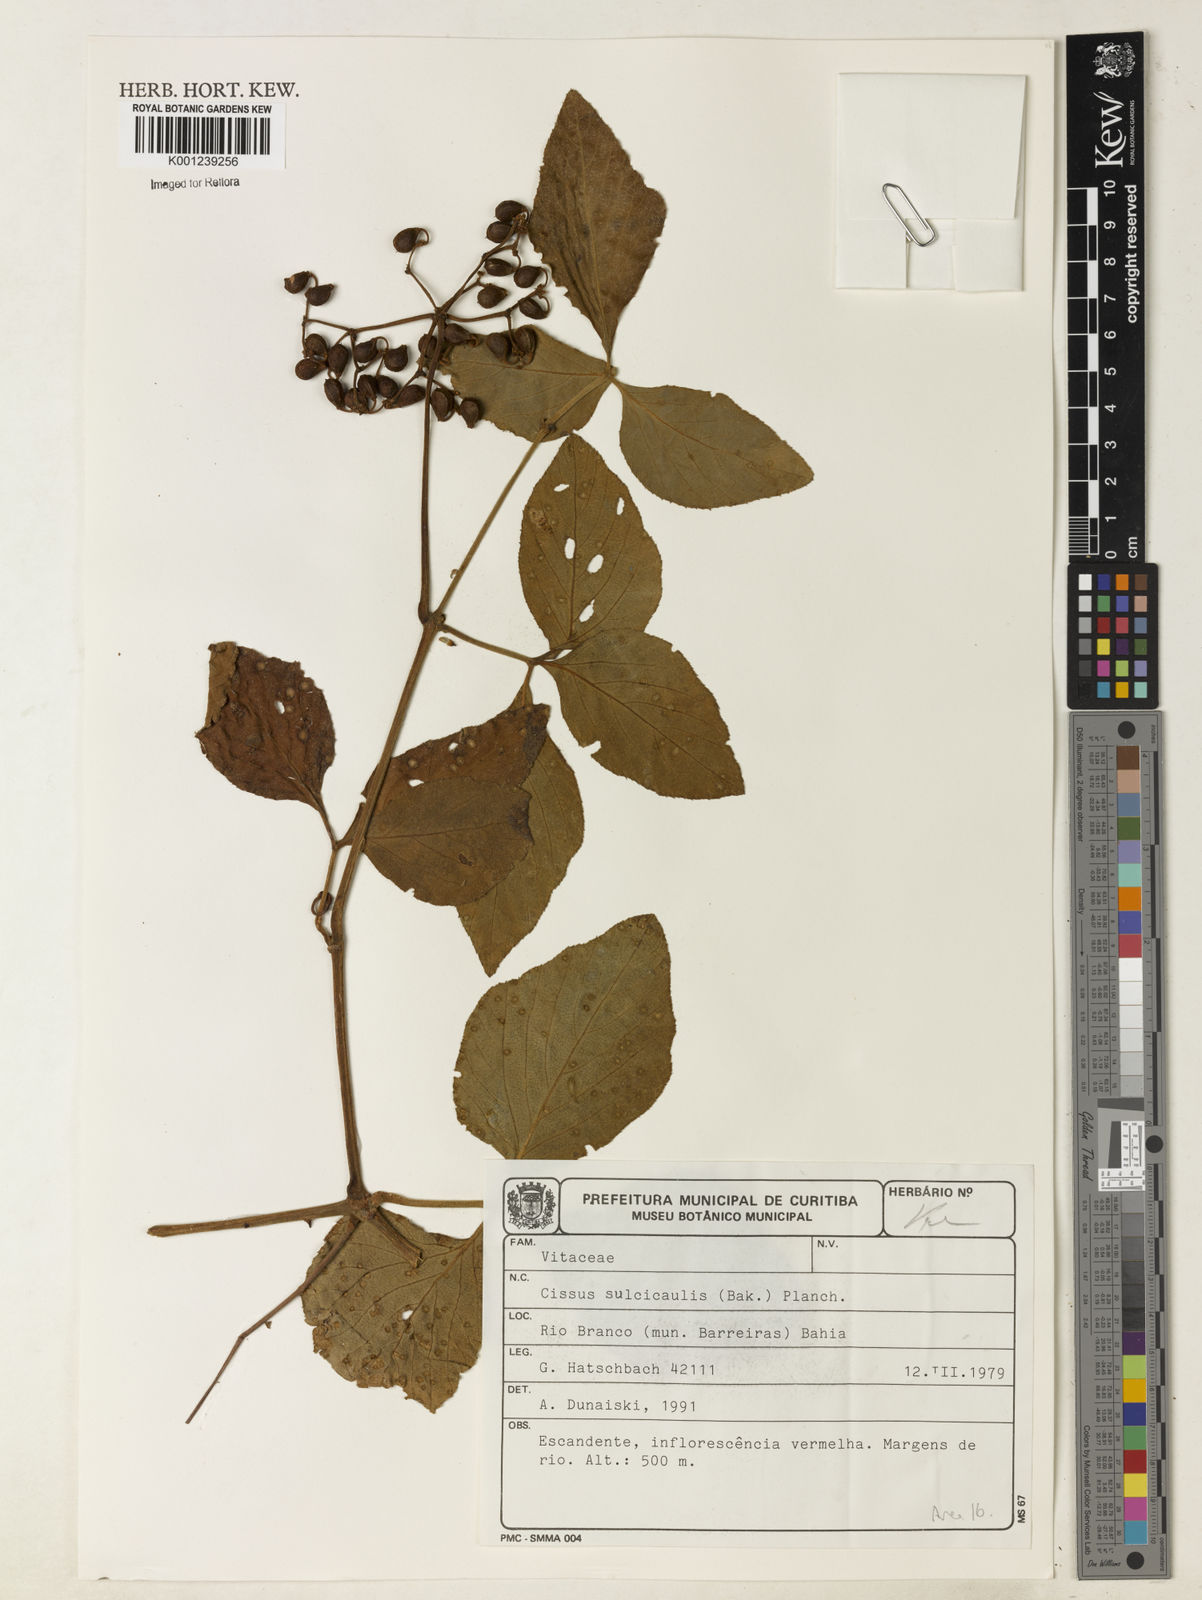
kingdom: Plantae
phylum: Tracheophyta
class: Magnoliopsida
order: Vitales
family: Vitaceae
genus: Cissus
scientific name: Cissus sulcicaulis
